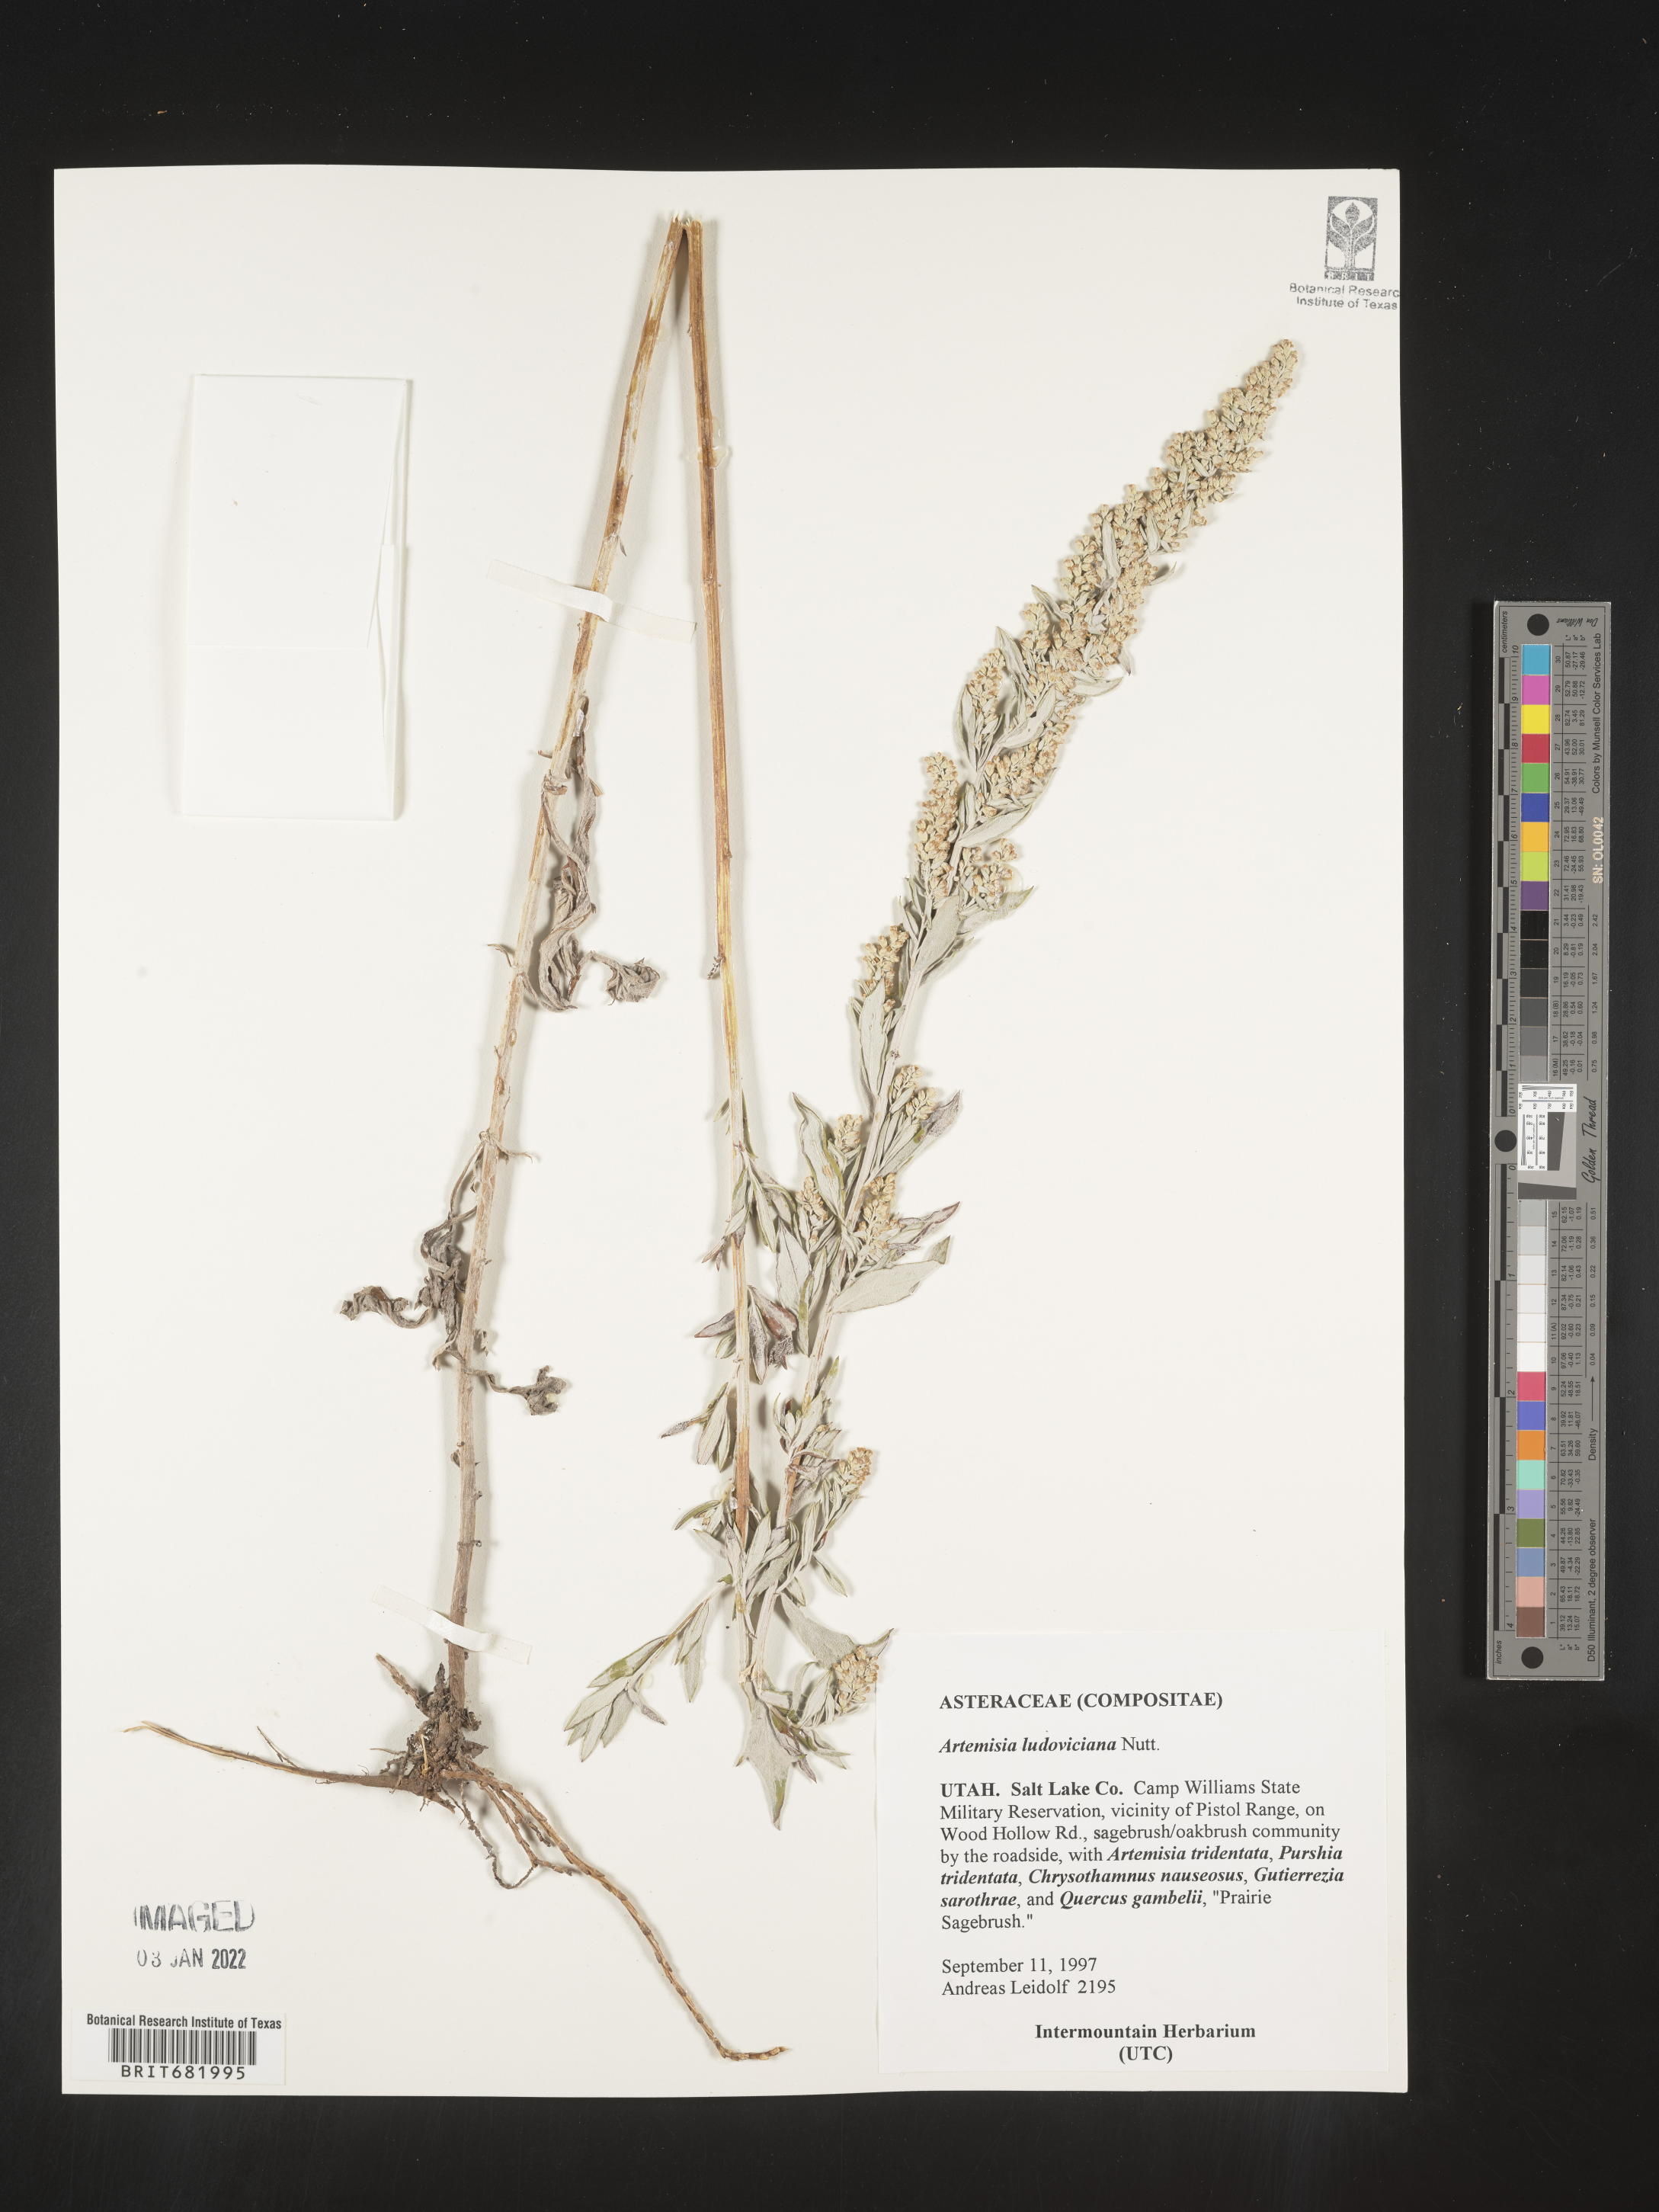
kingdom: Plantae
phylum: Tracheophyta
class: Magnoliopsida
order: Asterales
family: Asteraceae
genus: Artemisia
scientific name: Artemisia ludoviciana
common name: Western mugwort
